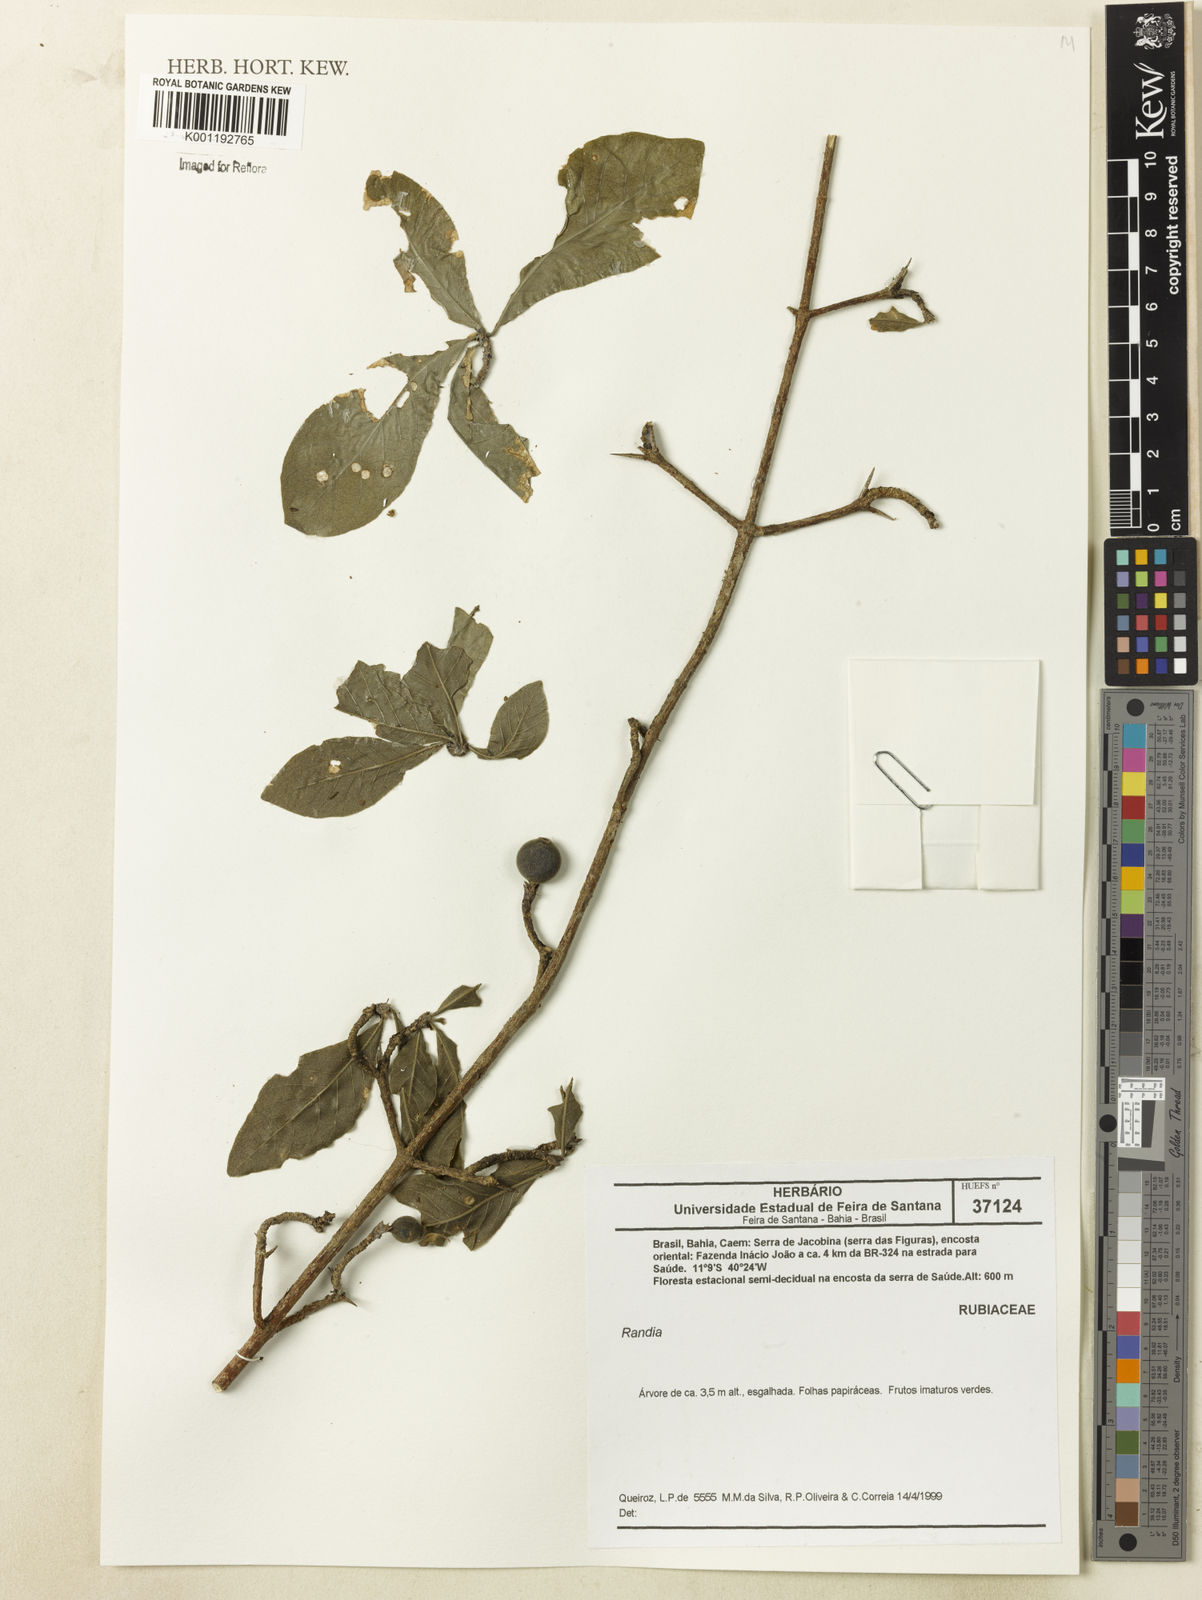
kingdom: Plantae
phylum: Tracheophyta
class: Magnoliopsida
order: Gentianales
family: Rubiaceae
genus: Randia
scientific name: Randia
